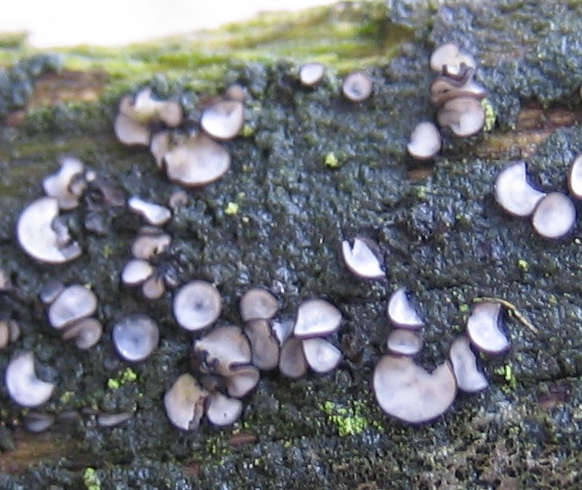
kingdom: Fungi
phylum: Ascomycota
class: Leotiomycetes
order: Helotiales
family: Mollisiaceae
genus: Mollisia
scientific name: Mollisia
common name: gråskive
